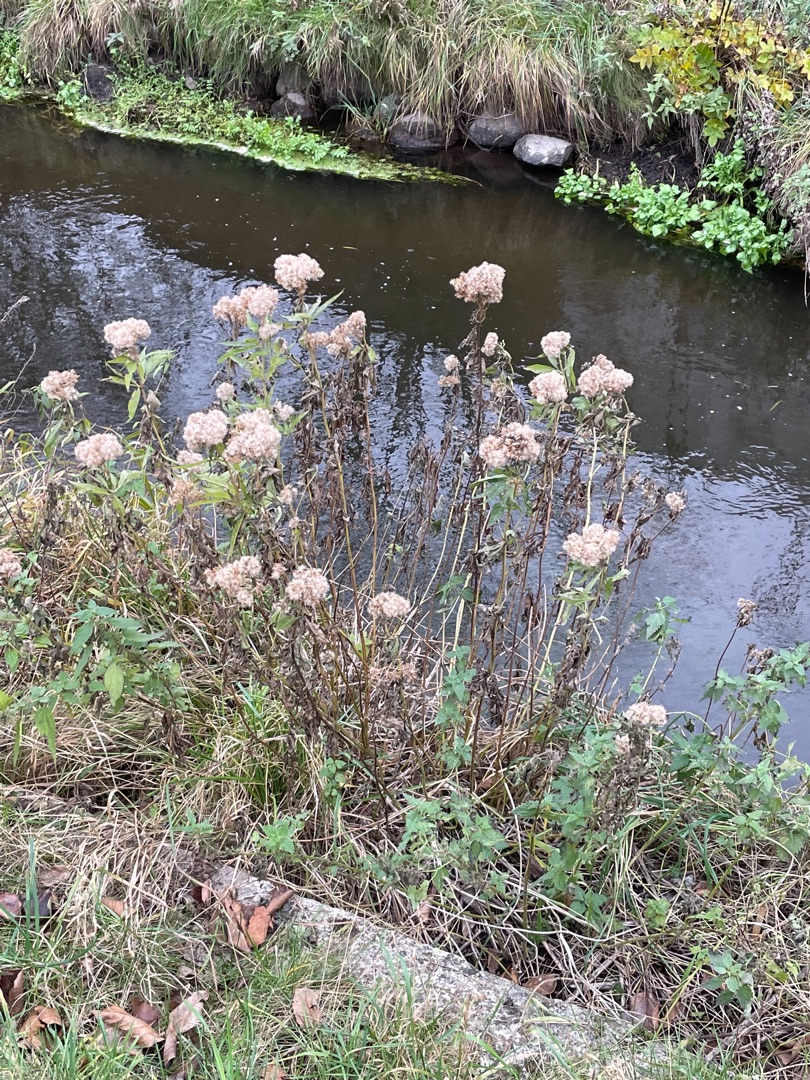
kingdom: Plantae
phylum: Tracheophyta
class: Magnoliopsida
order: Asterales
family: Asteraceae
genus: Eupatorium
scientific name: Eupatorium cannabinum
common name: Hjortetrøst
